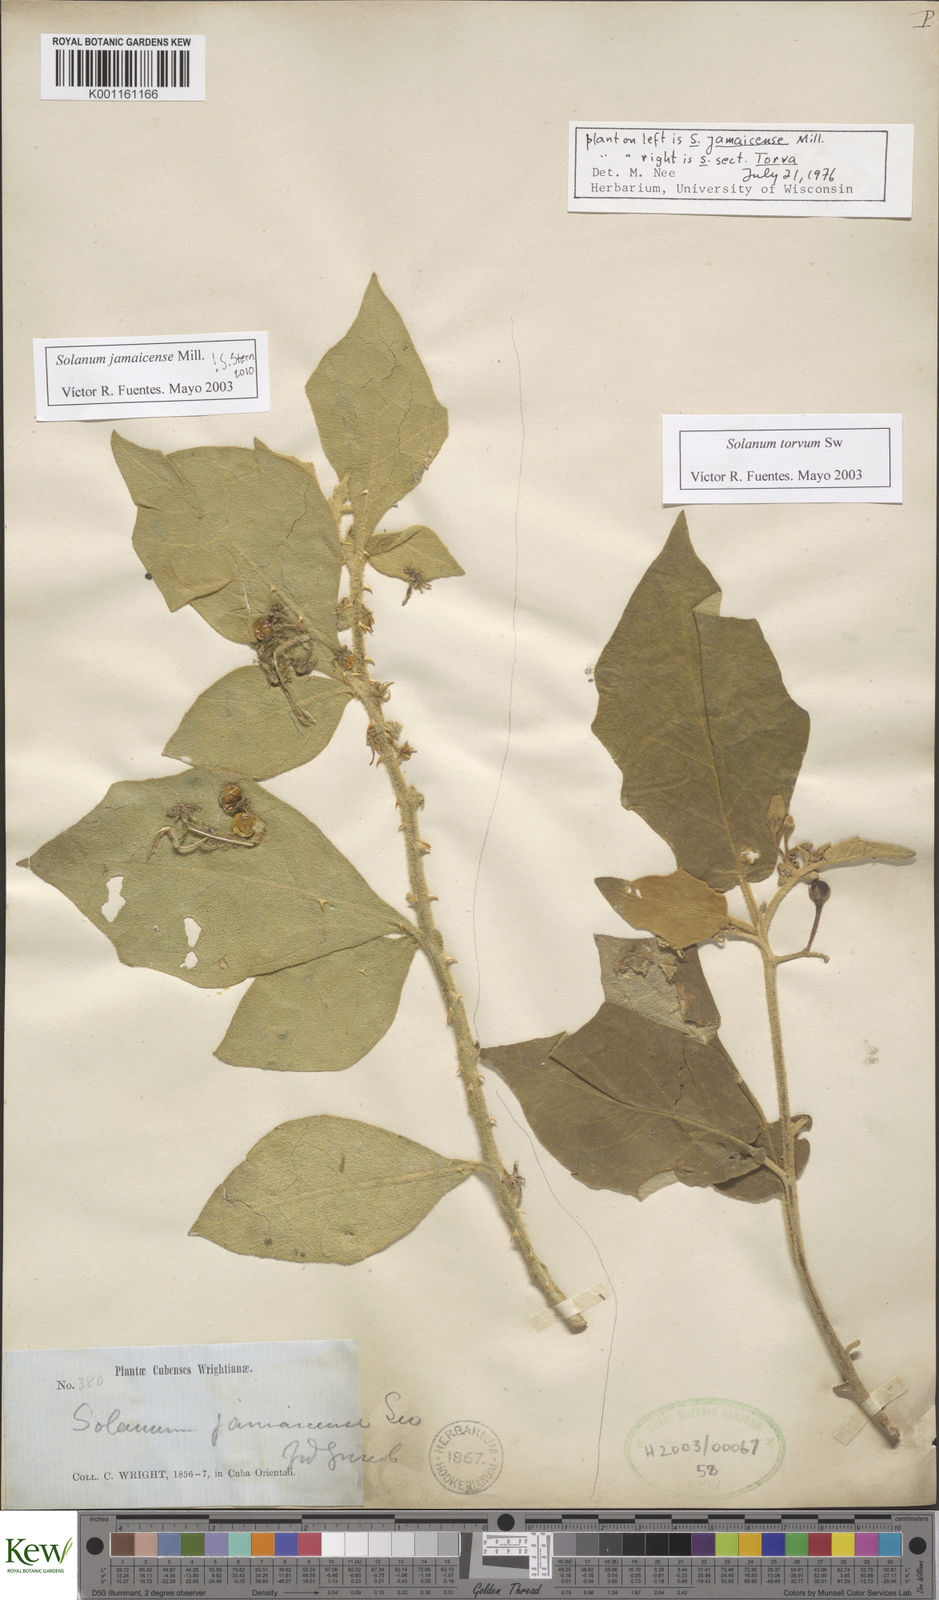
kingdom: Plantae
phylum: Tracheophyta
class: Magnoliopsida
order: Solanales
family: Solanaceae
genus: Solanum
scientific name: Solanum jamaicense
